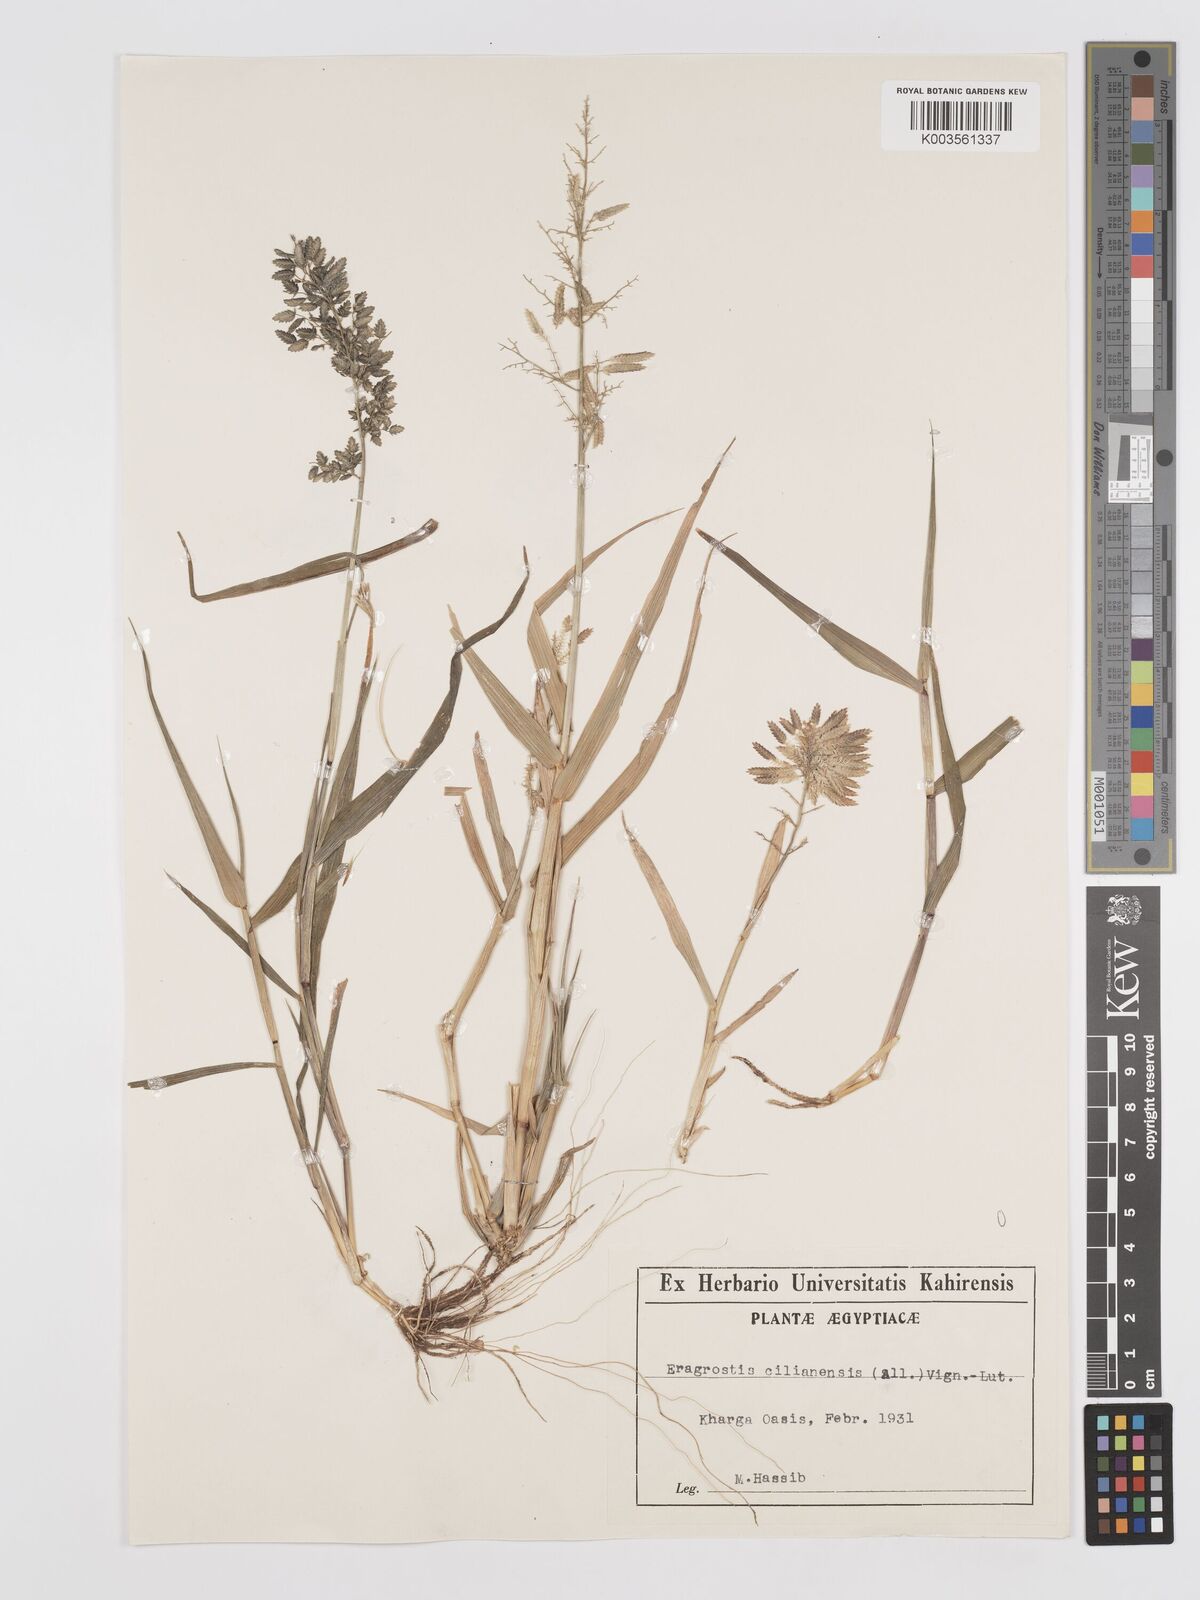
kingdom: Plantae
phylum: Tracheophyta
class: Liliopsida
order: Poales
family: Poaceae
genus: Eragrostis
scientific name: Eragrostis cilianensis
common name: Stinkgrass
